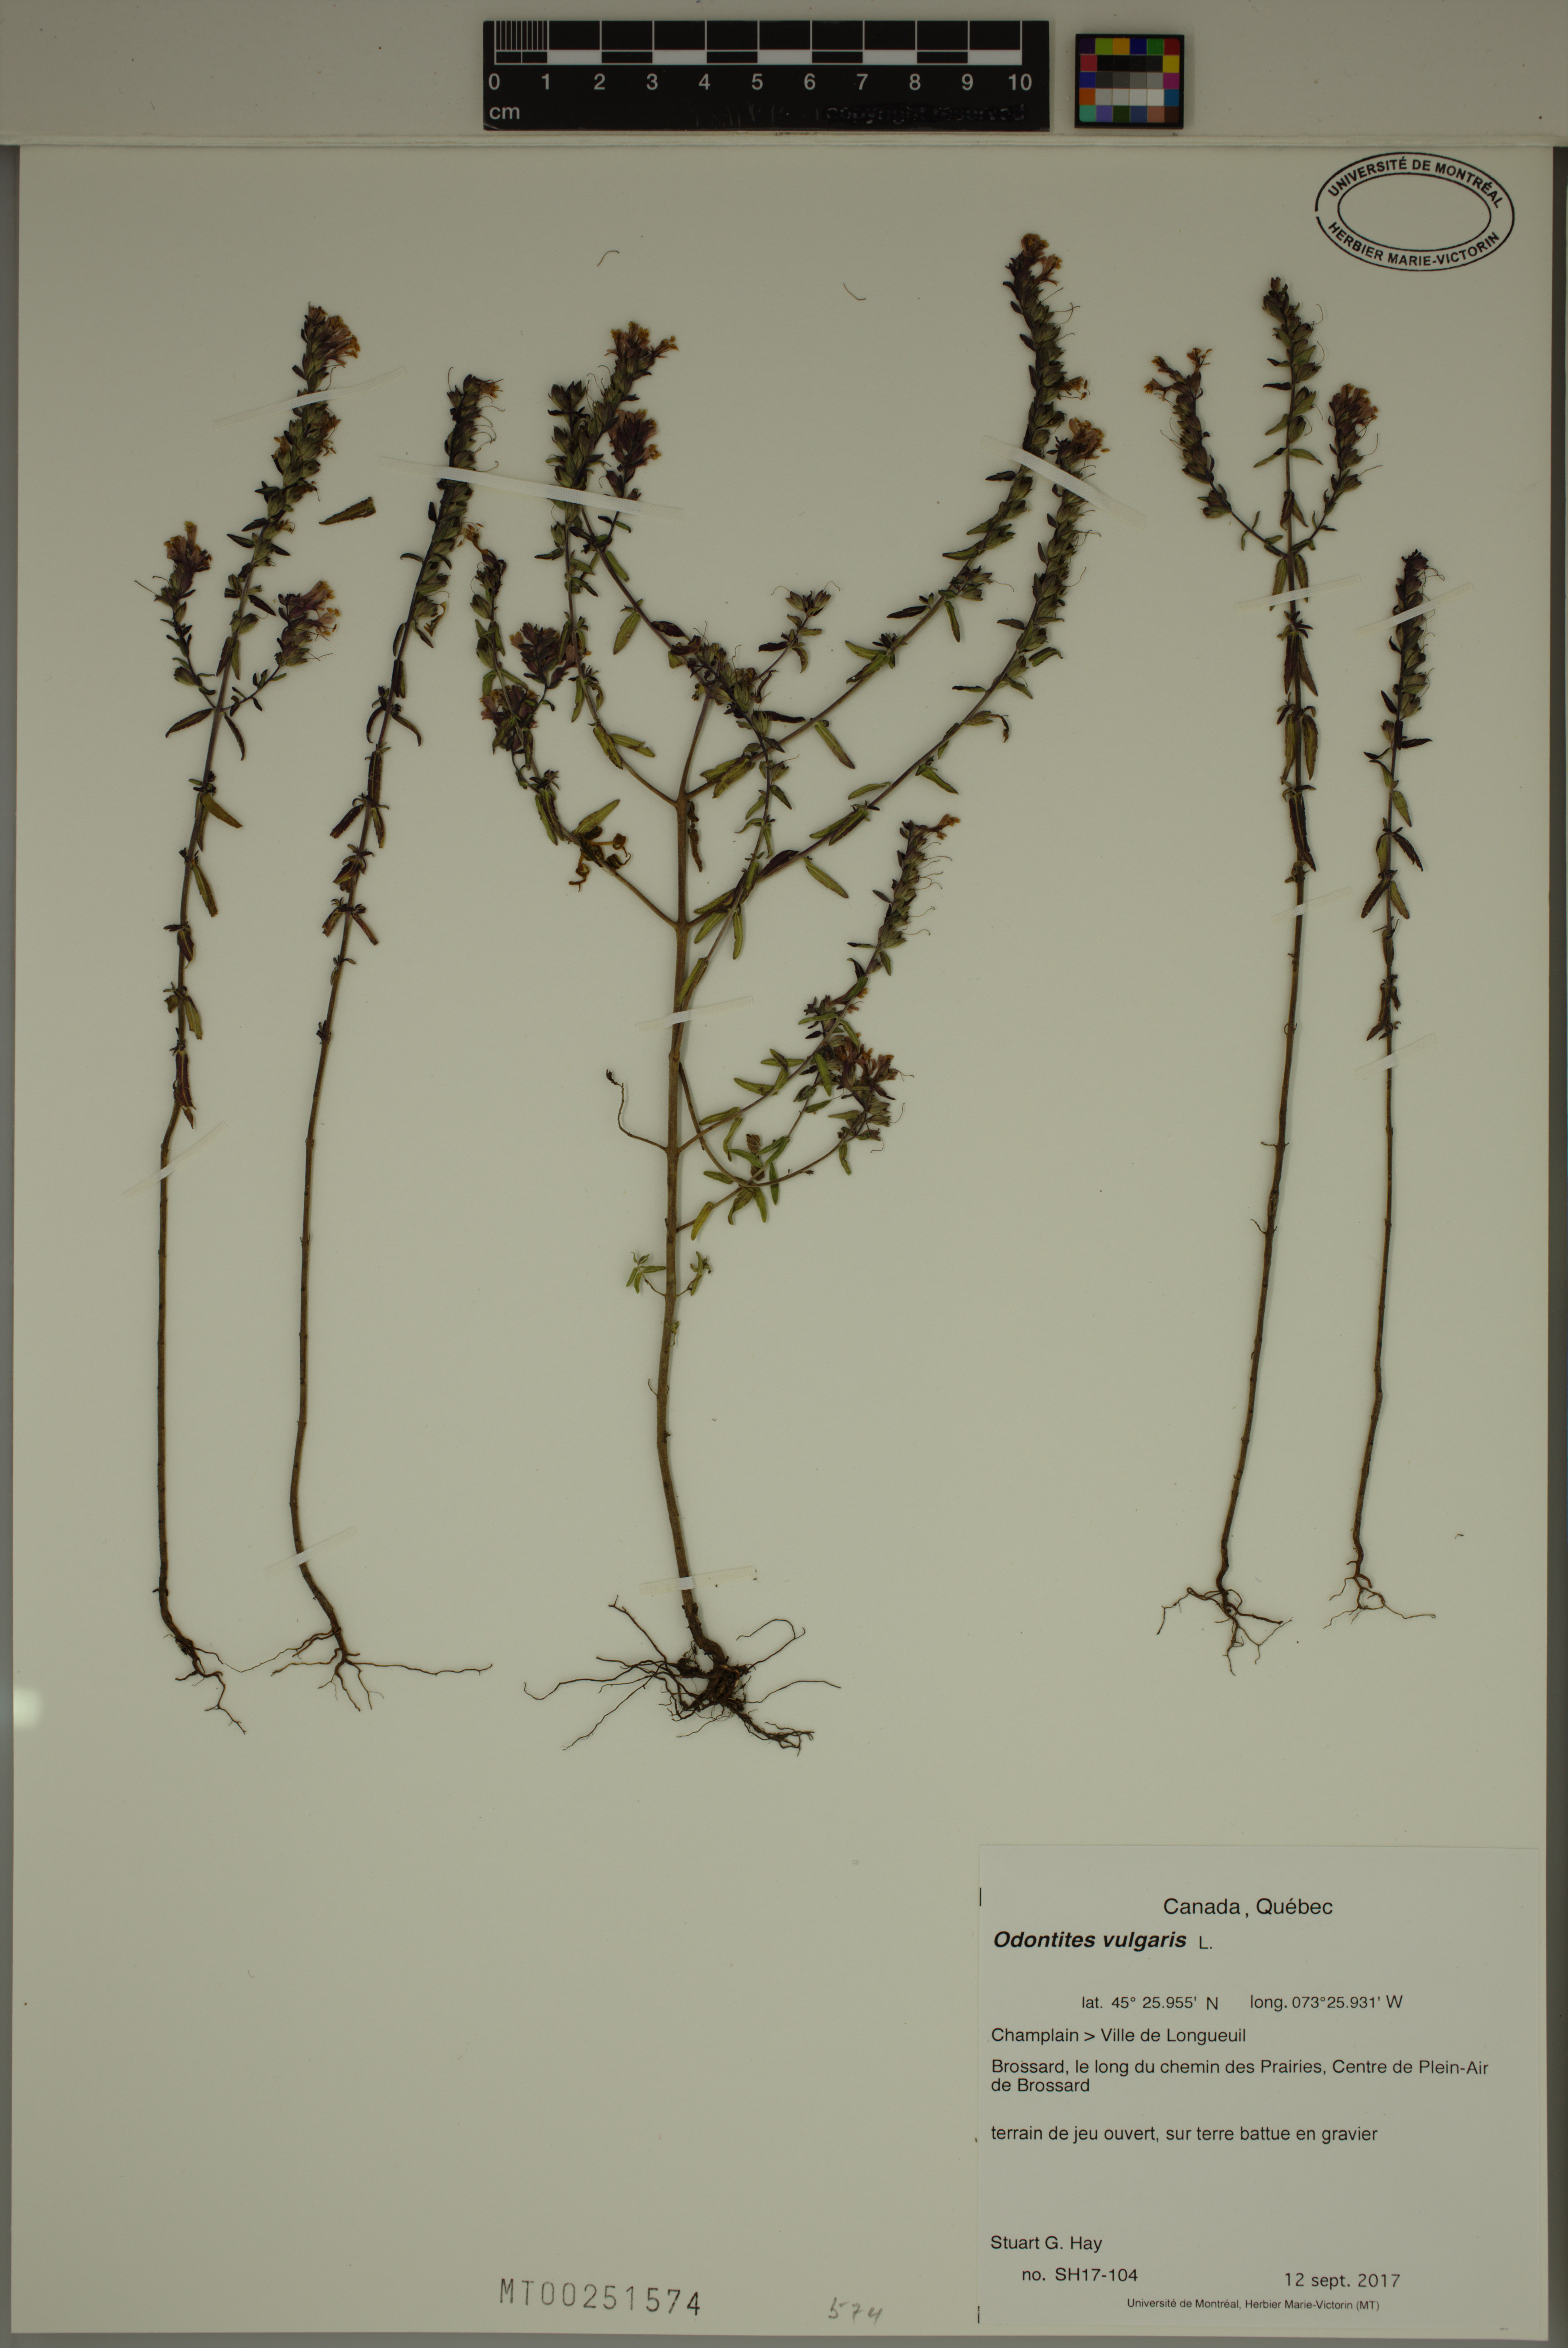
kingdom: Plantae
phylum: Tracheophyta
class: Magnoliopsida
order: Lamiales
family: Orobanchaceae
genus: Odontites
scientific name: Odontites vulgaris
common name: Broomrape
